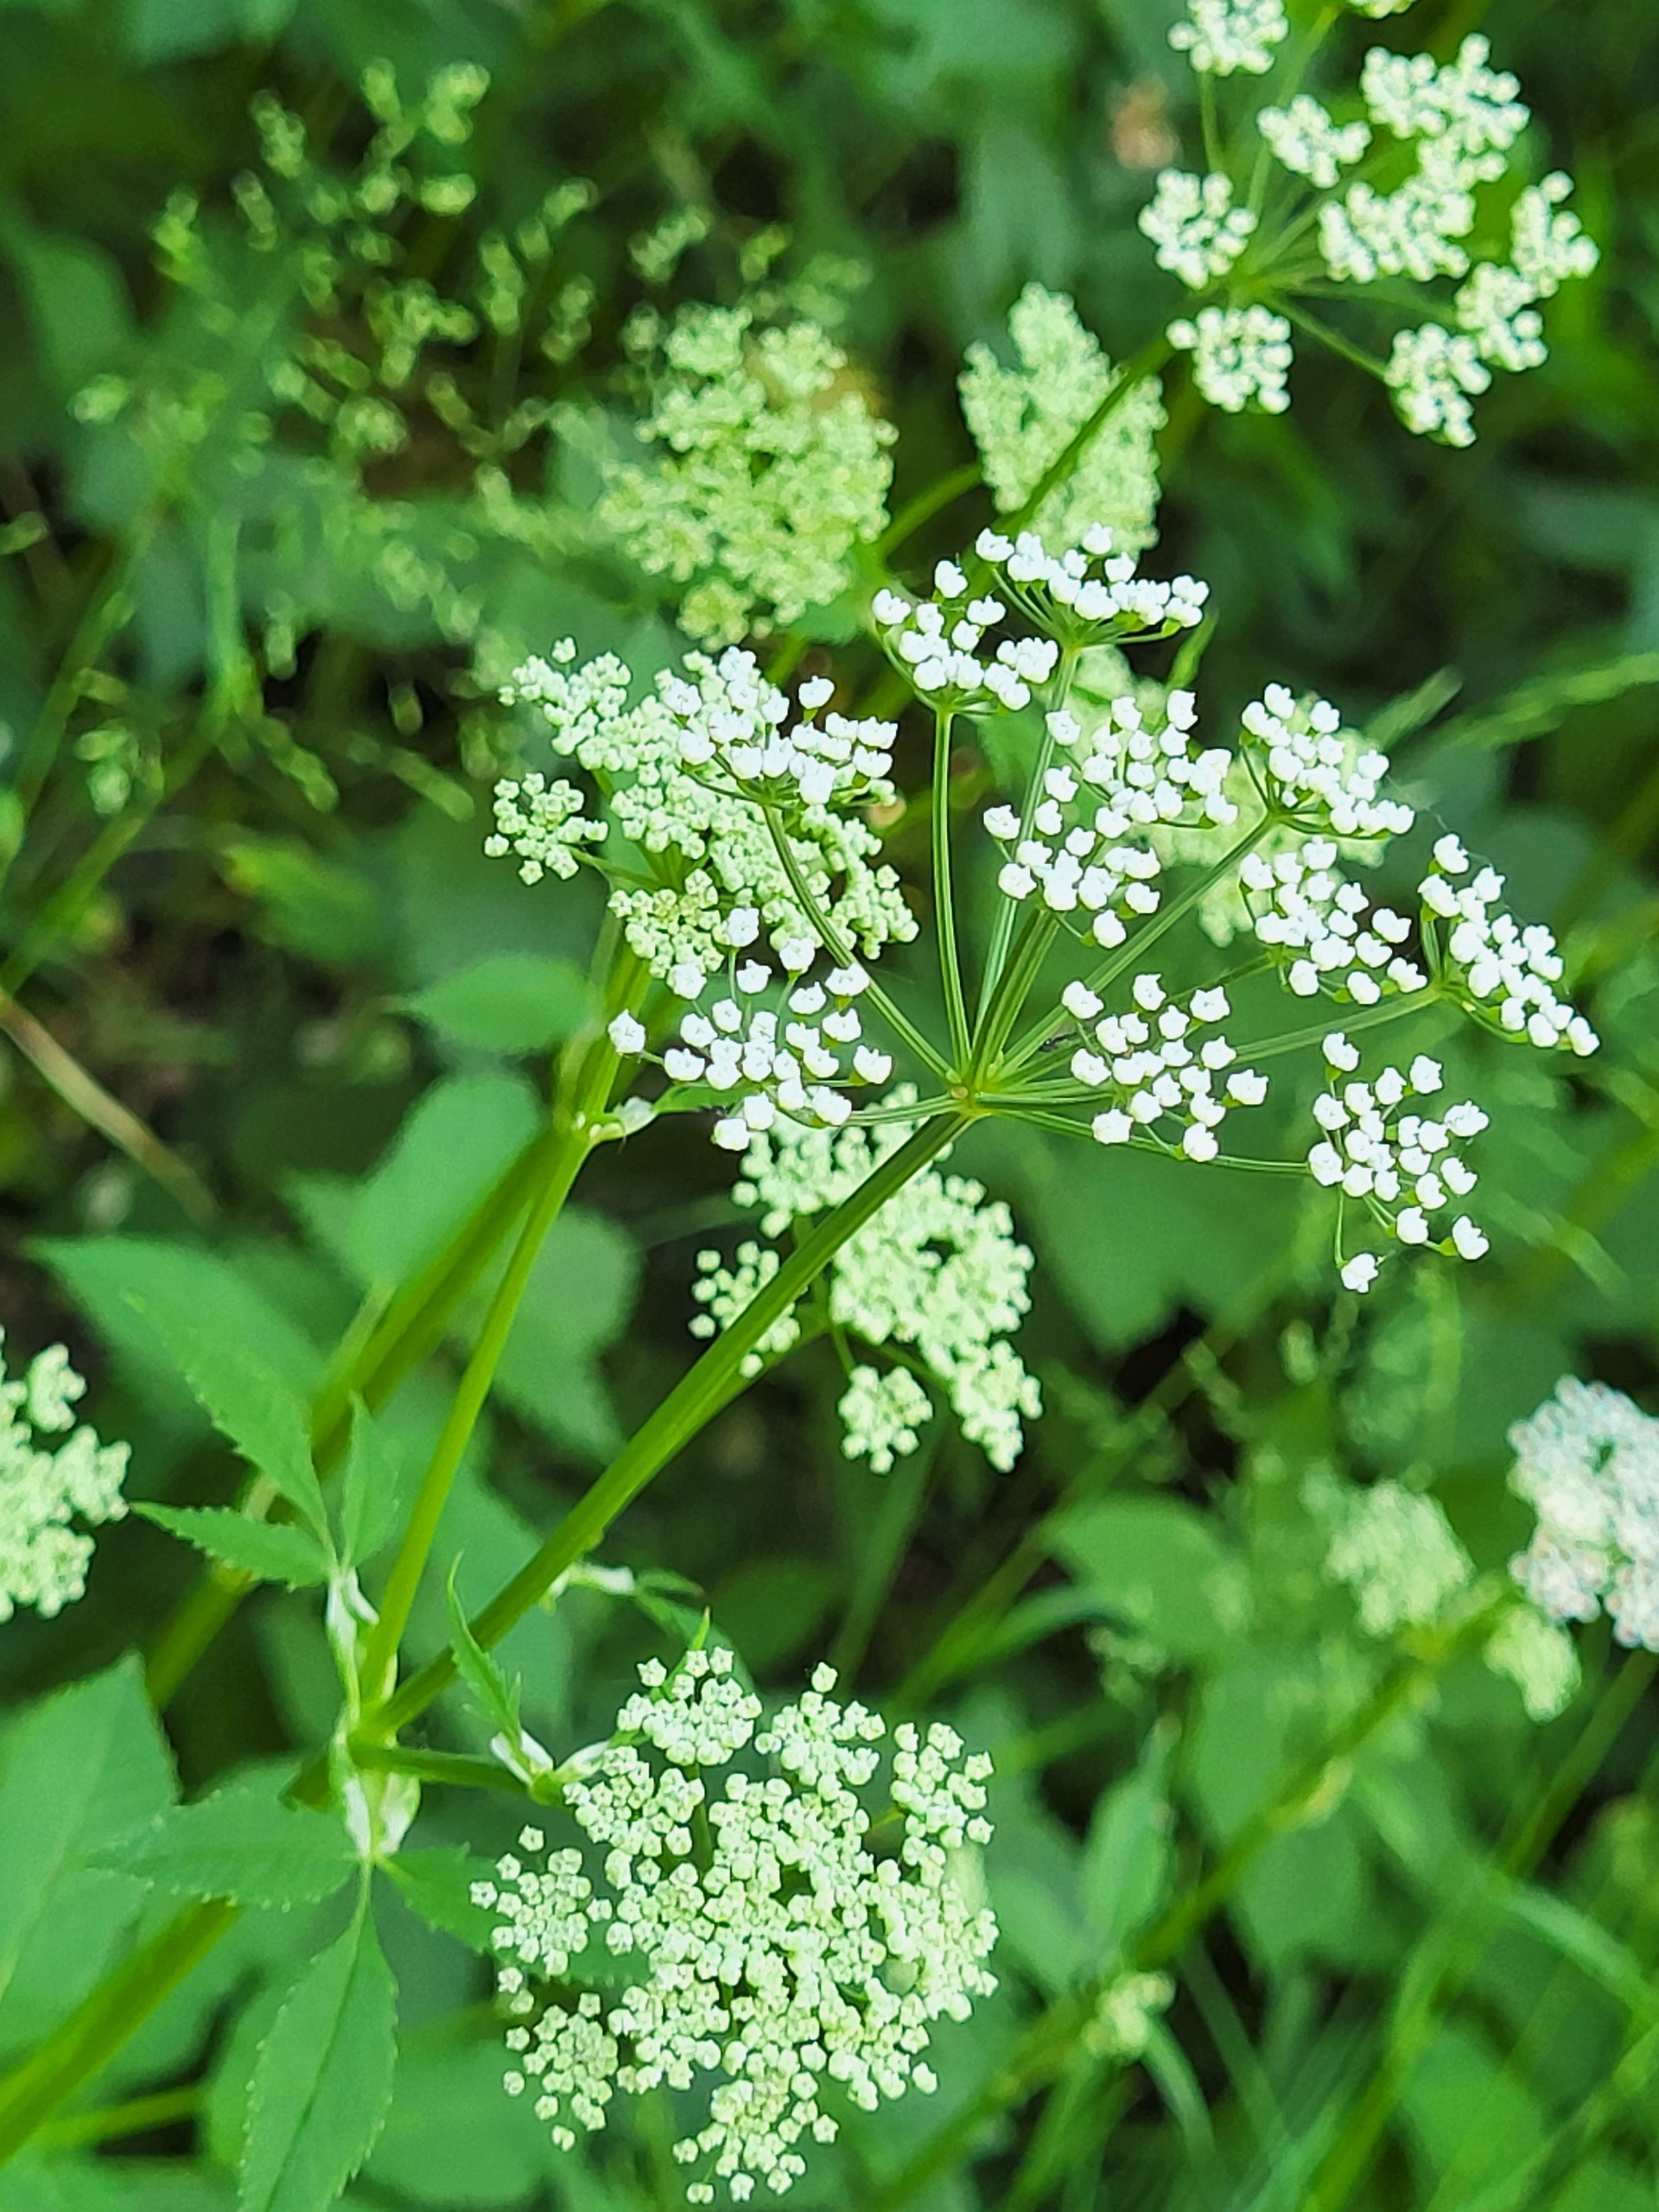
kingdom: Plantae
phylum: Tracheophyta
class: Magnoliopsida
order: Apiales
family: Apiaceae
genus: Aegopodium
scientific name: Aegopodium podagraria
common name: Skvalderkål
